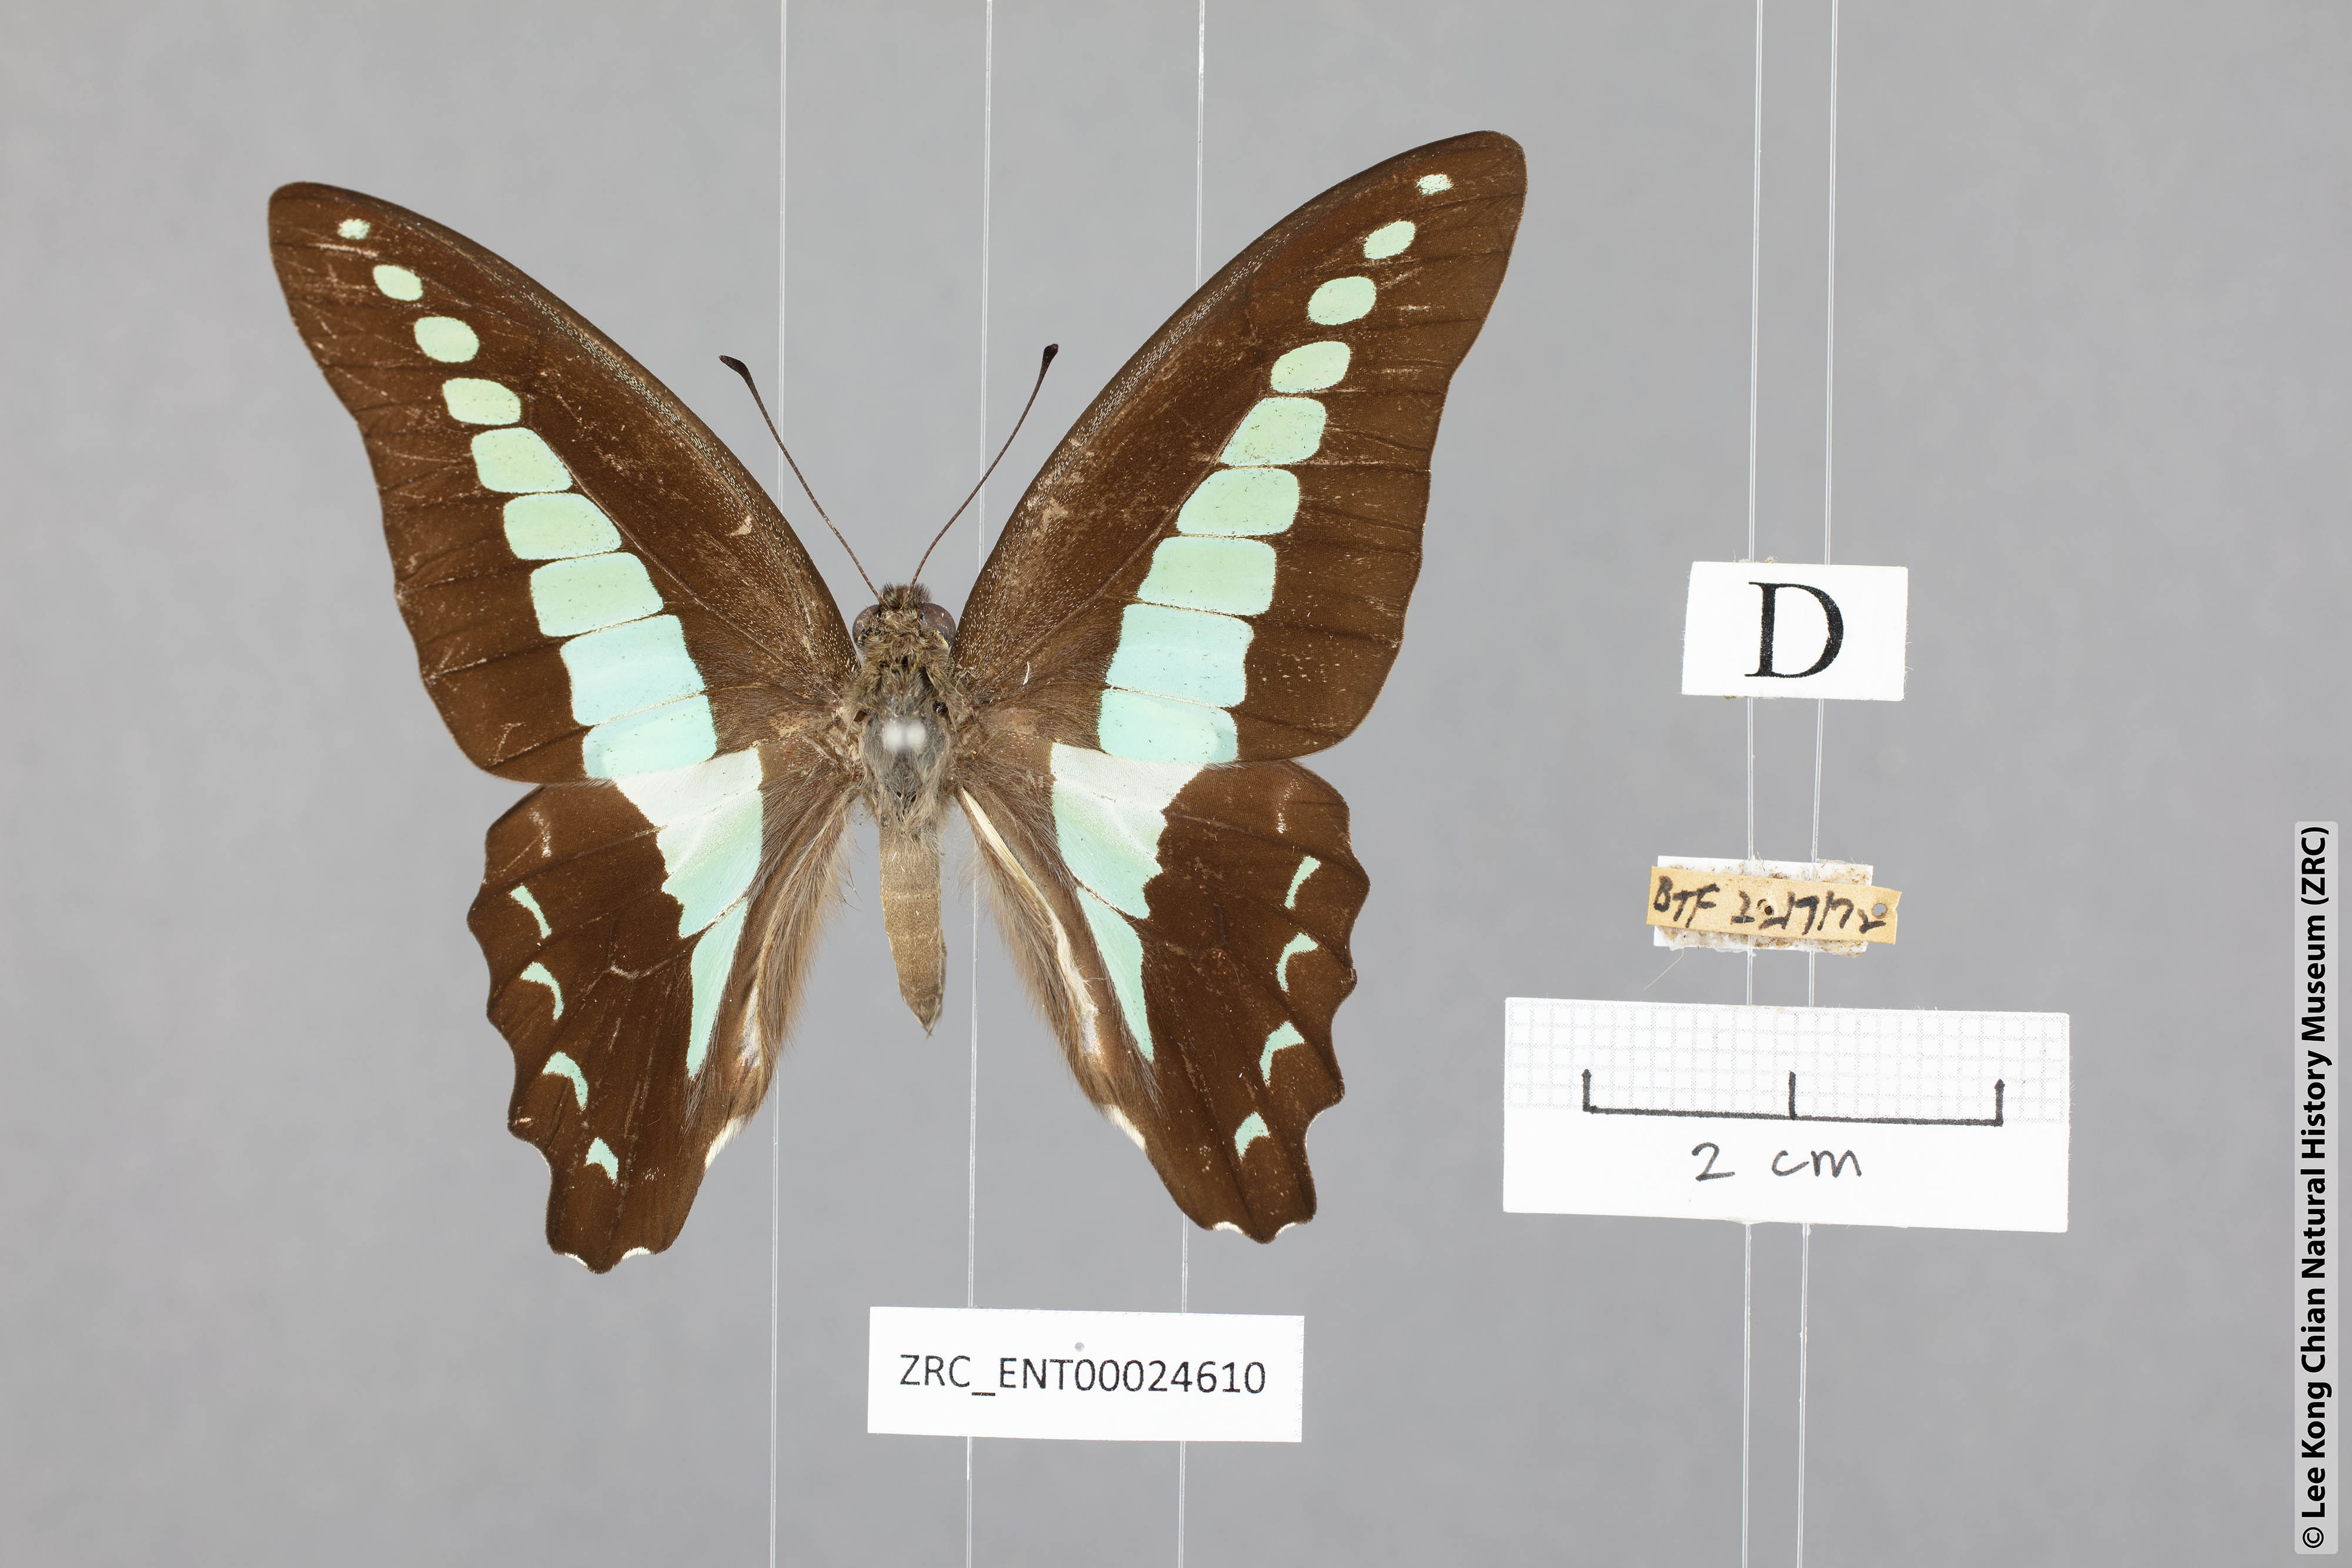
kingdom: Fungi
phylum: Ascomycota
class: Sordariomycetes
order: Microascales
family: Microascaceae
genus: Graphium
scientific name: Graphium sarpedon
